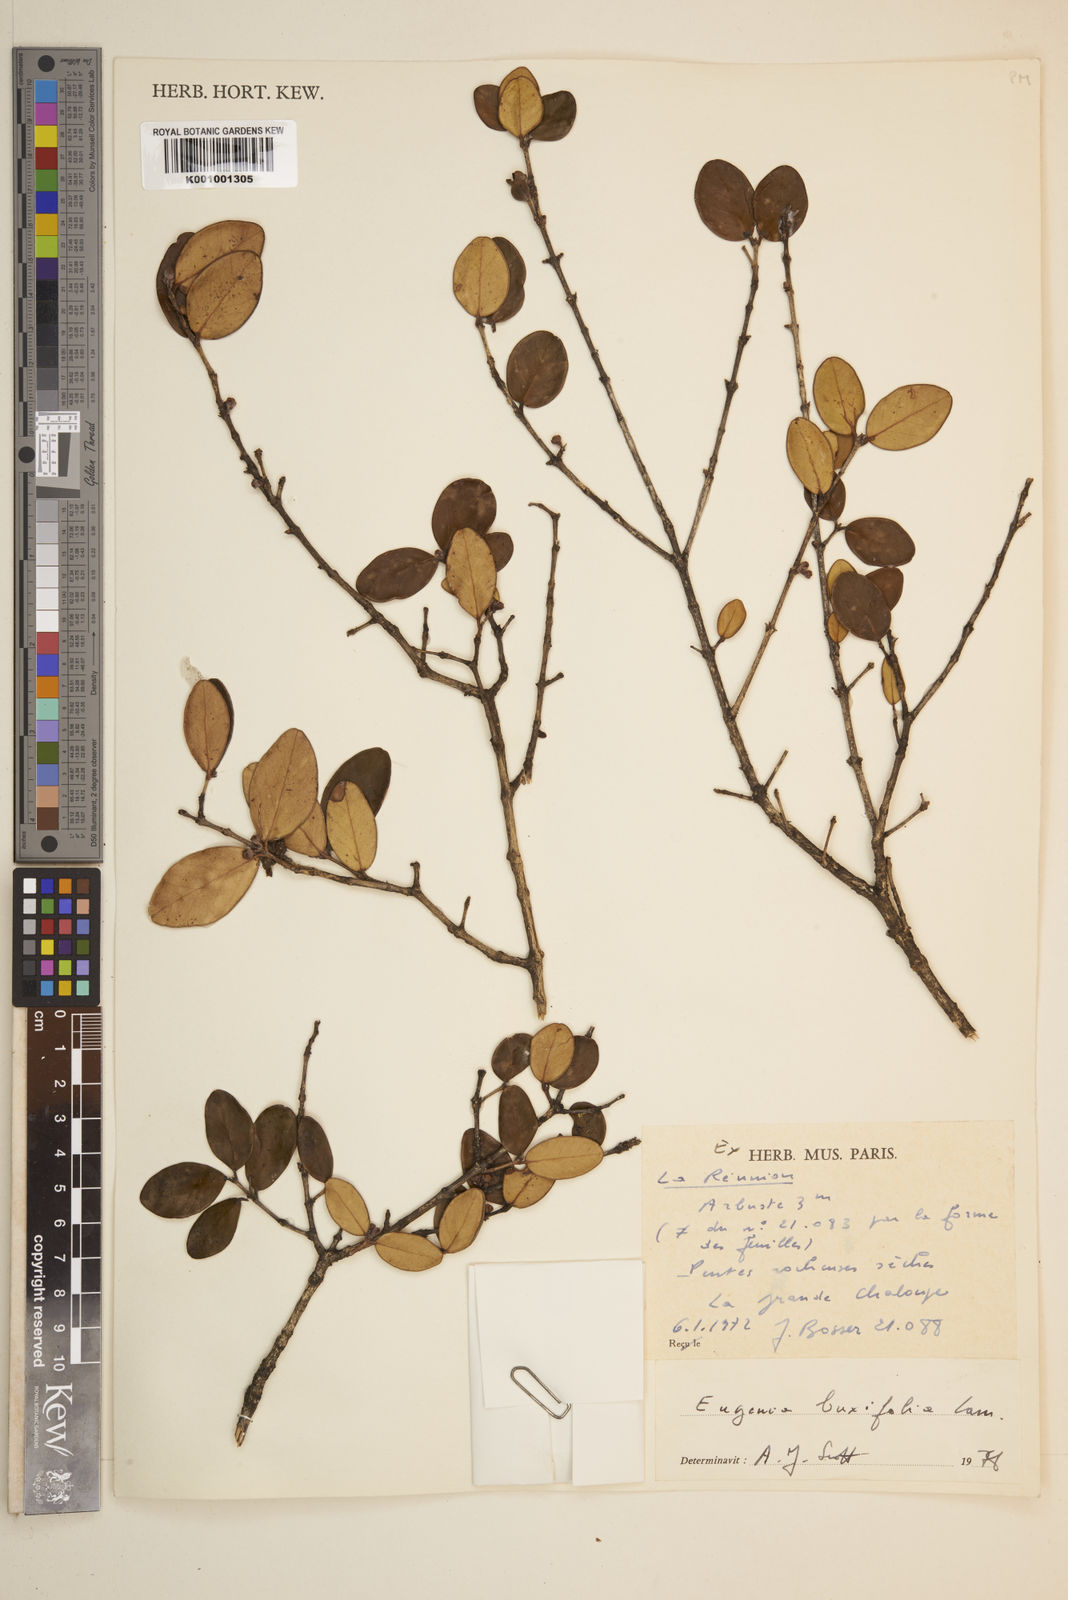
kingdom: Plantae
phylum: Tracheophyta
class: Magnoliopsida
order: Myrtales
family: Myrtaceae
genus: Eugenia
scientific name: Eugenia buxifolia
